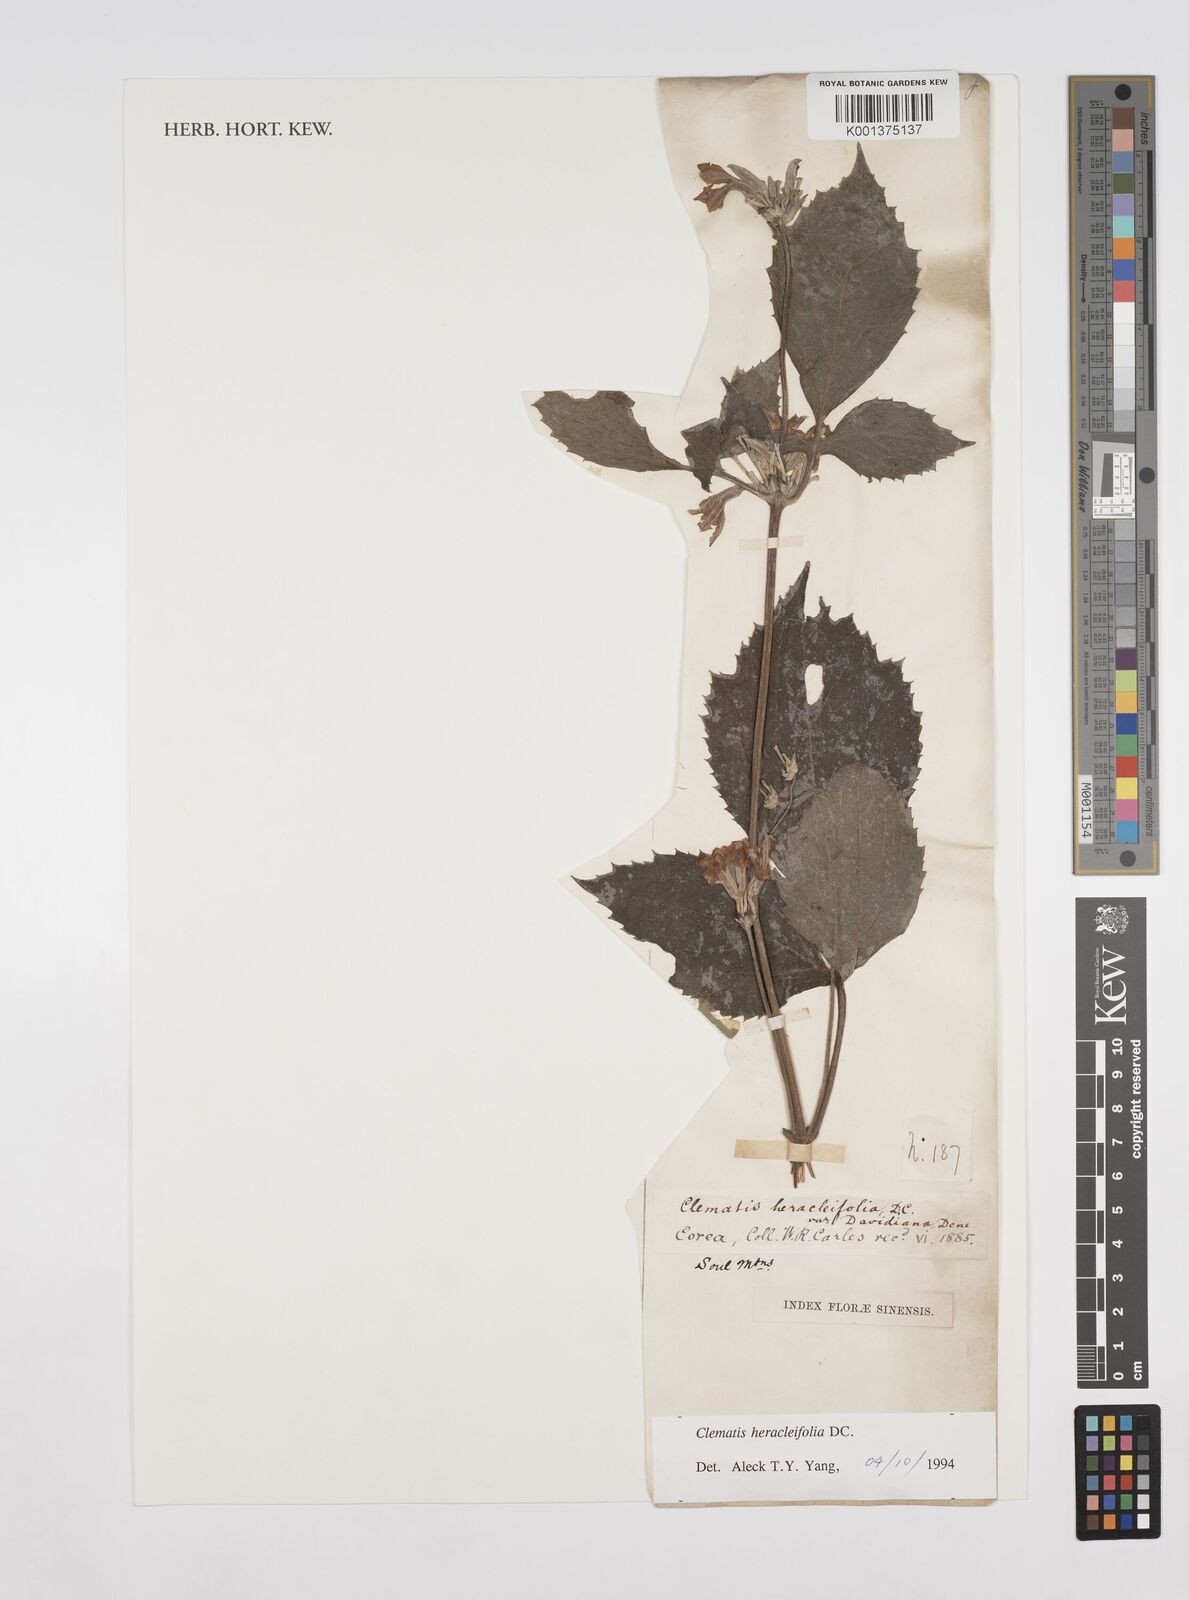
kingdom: Plantae
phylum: Tracheophyta
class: Magnoliopsida
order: Ranunculales
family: Ranunculaceae
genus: Clematis
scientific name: Clematis heracleifolia
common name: Hyacinth-flower clematis
